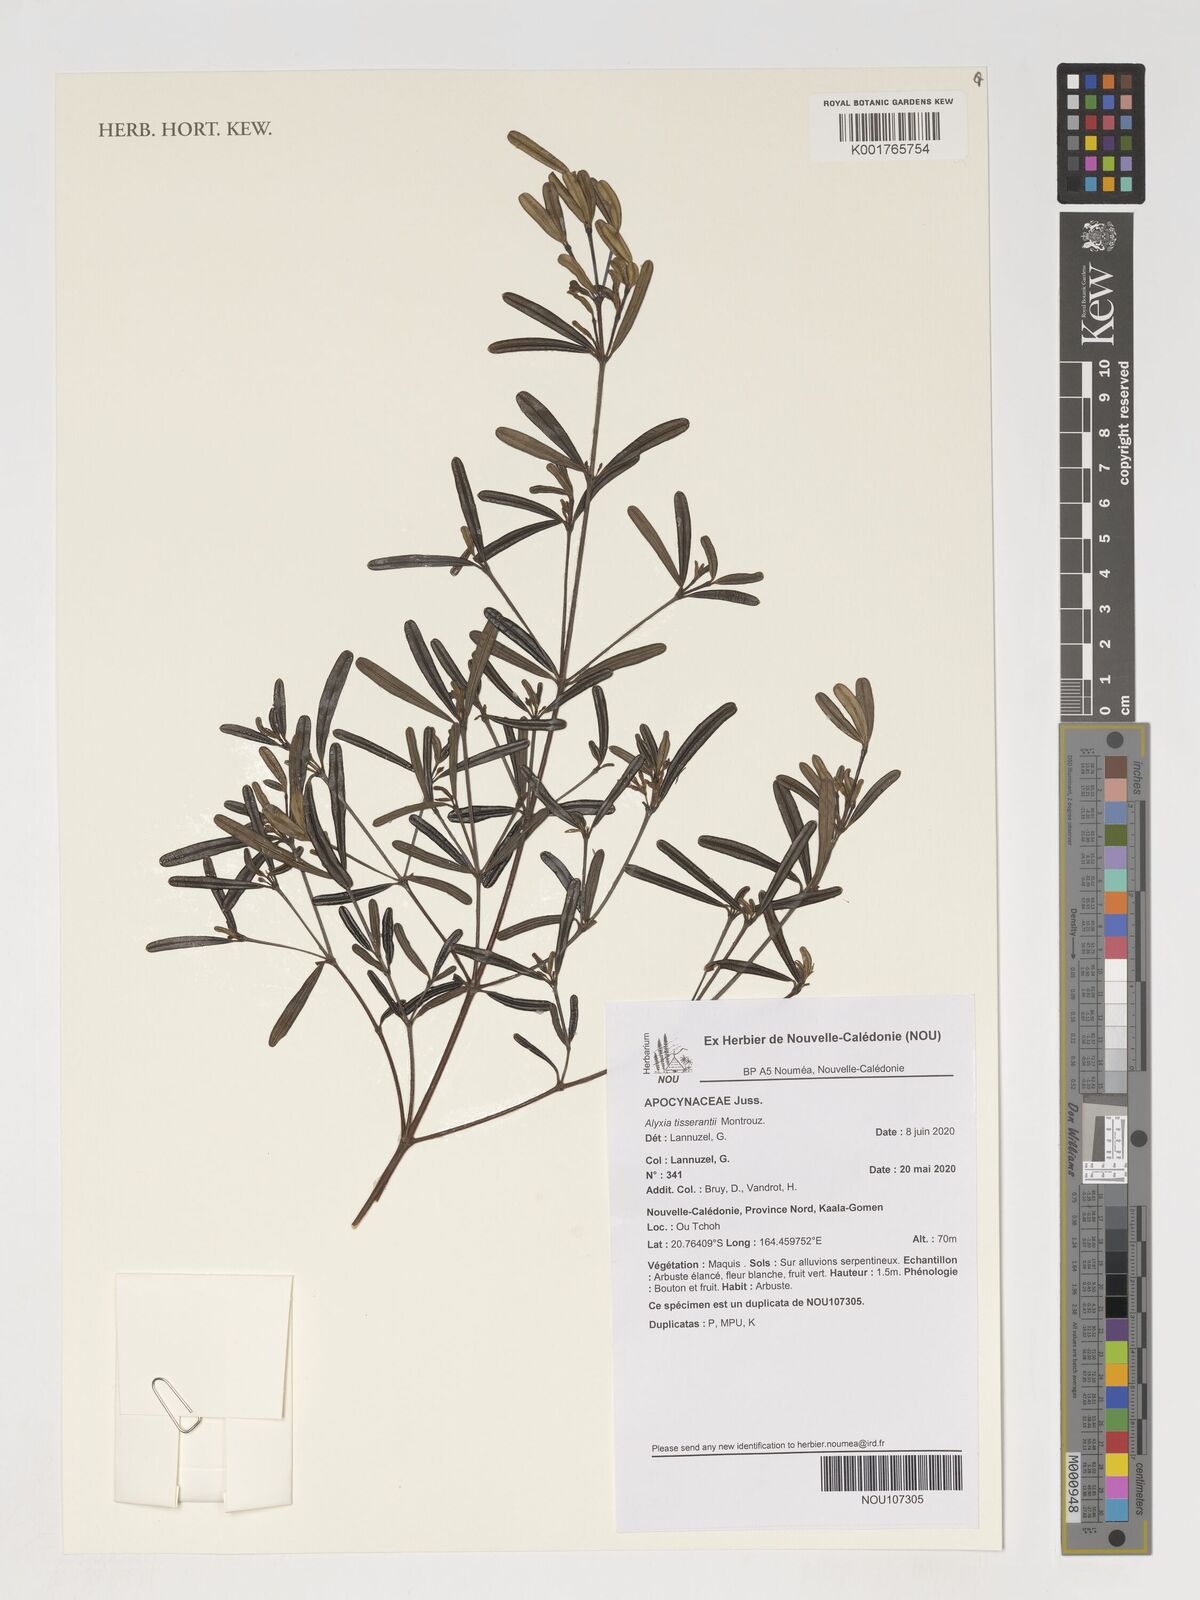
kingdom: Plantae
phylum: Tracheophyta
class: Magnoliopsida
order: Gentianales
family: Apocynaceae
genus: Alyxia
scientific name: Alyxia tisserantii
